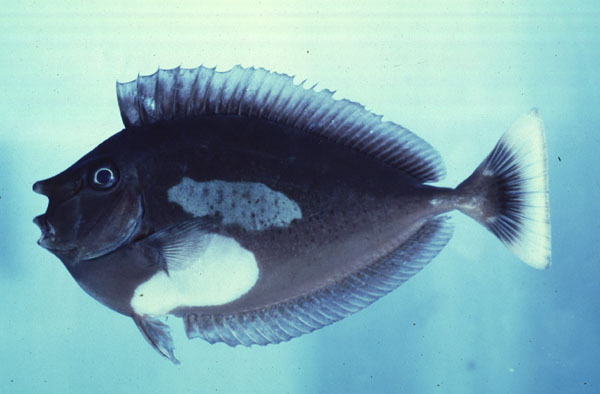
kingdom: Animalia
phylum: Chordata
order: Perciformes
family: Acanthuridae
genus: Naso
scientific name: Naso brevirostris
